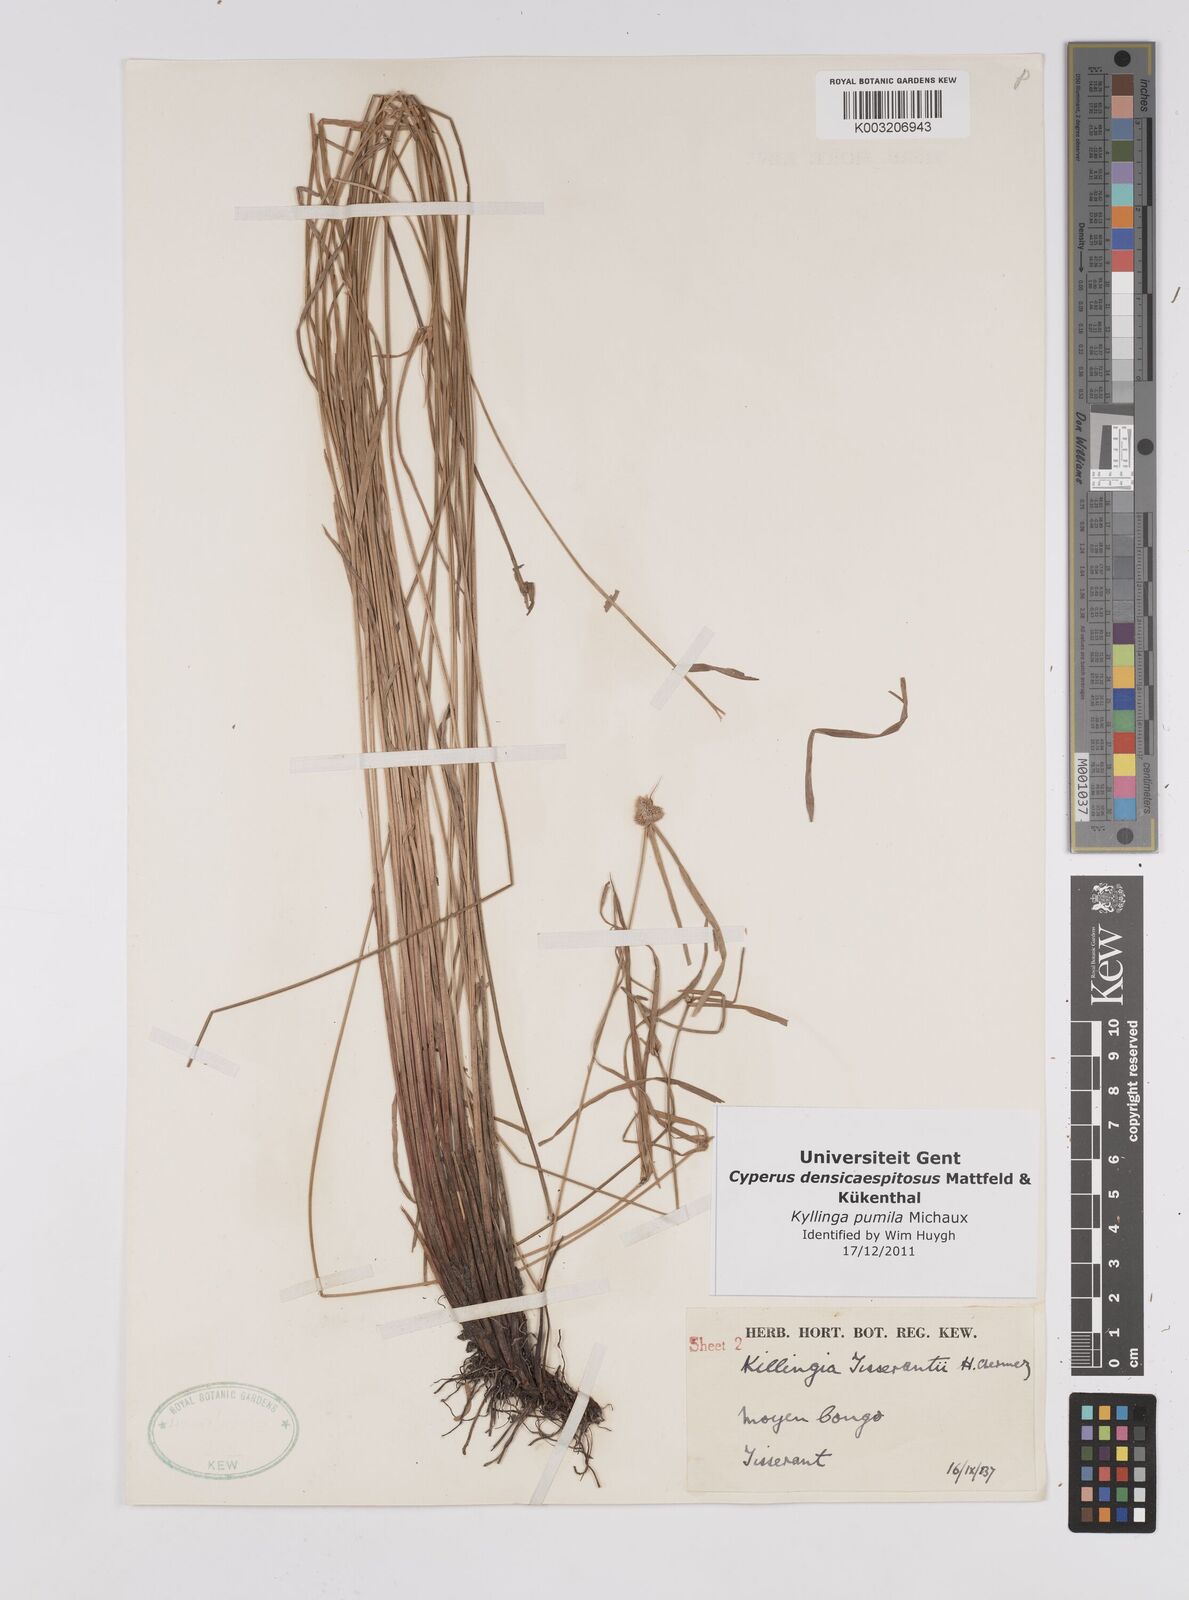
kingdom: Plantae
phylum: Tracheophyta
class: Liliopsida
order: Poales
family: Cyperaceae
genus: Cyperus
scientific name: Cyperus hortensis
